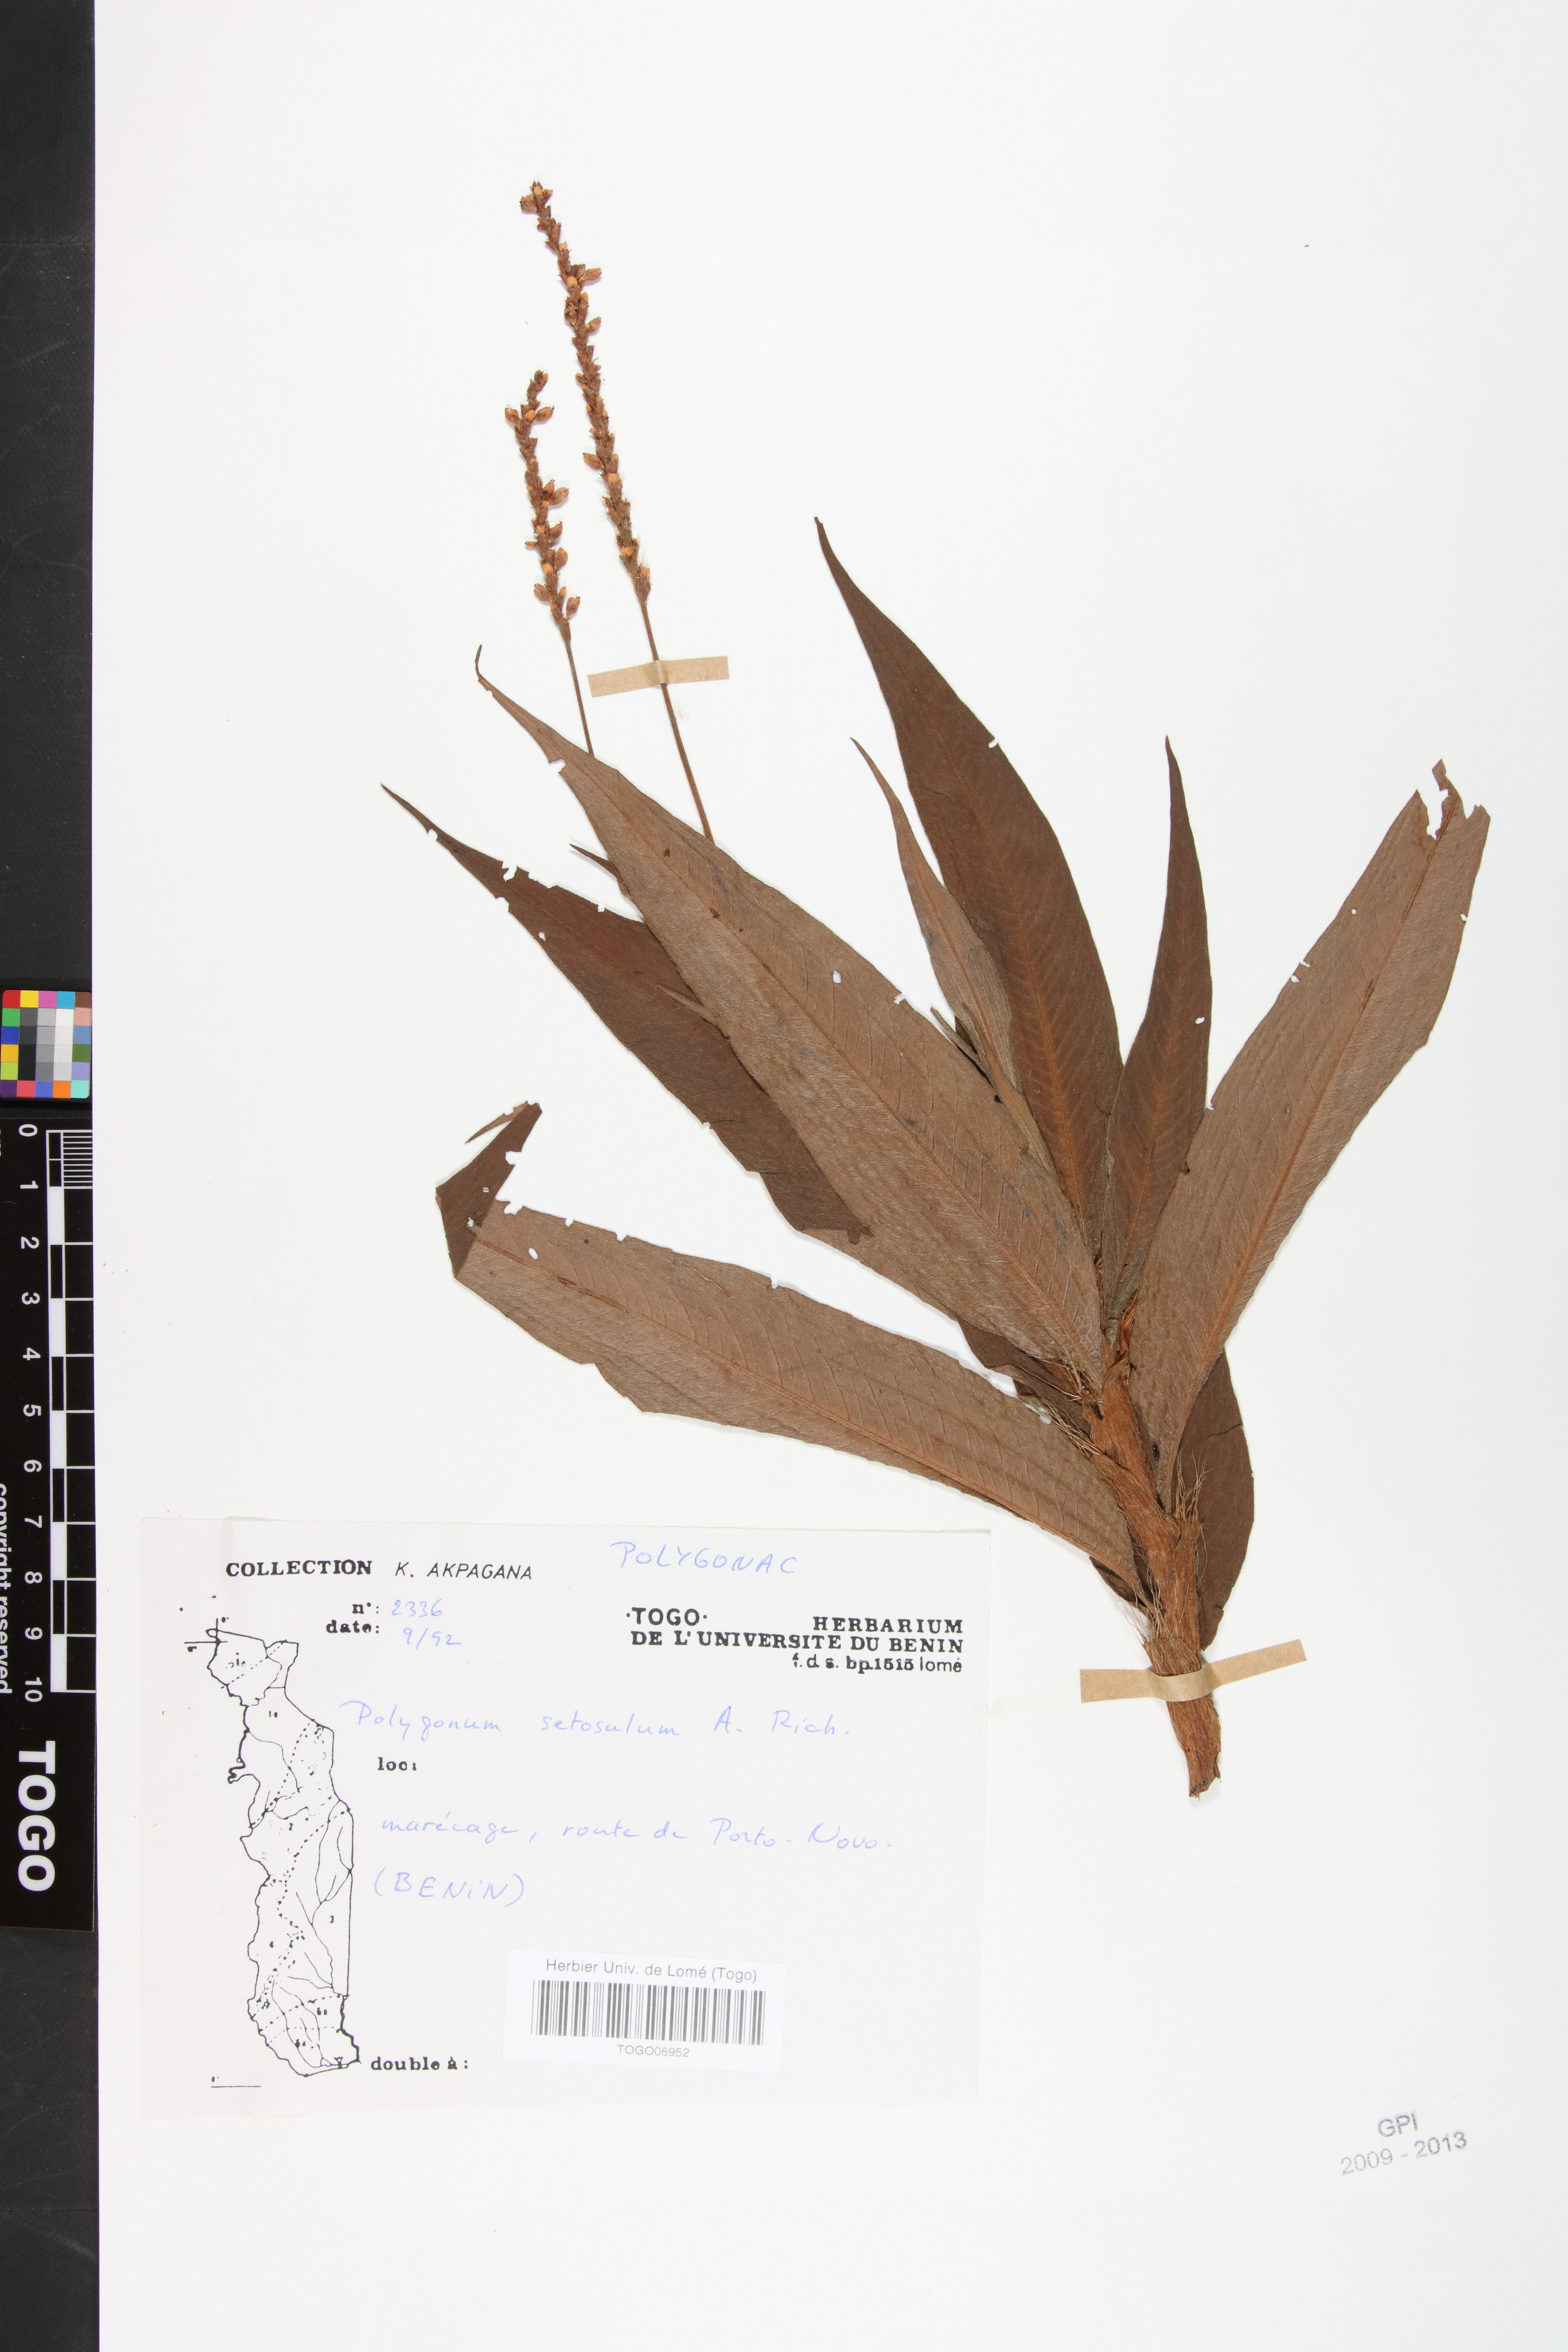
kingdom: Plantae
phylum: Tracheophyta
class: Magnoliopsida
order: Caryophyllales
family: Polygonaceae
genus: Persicaria
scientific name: Persicaria setosula
